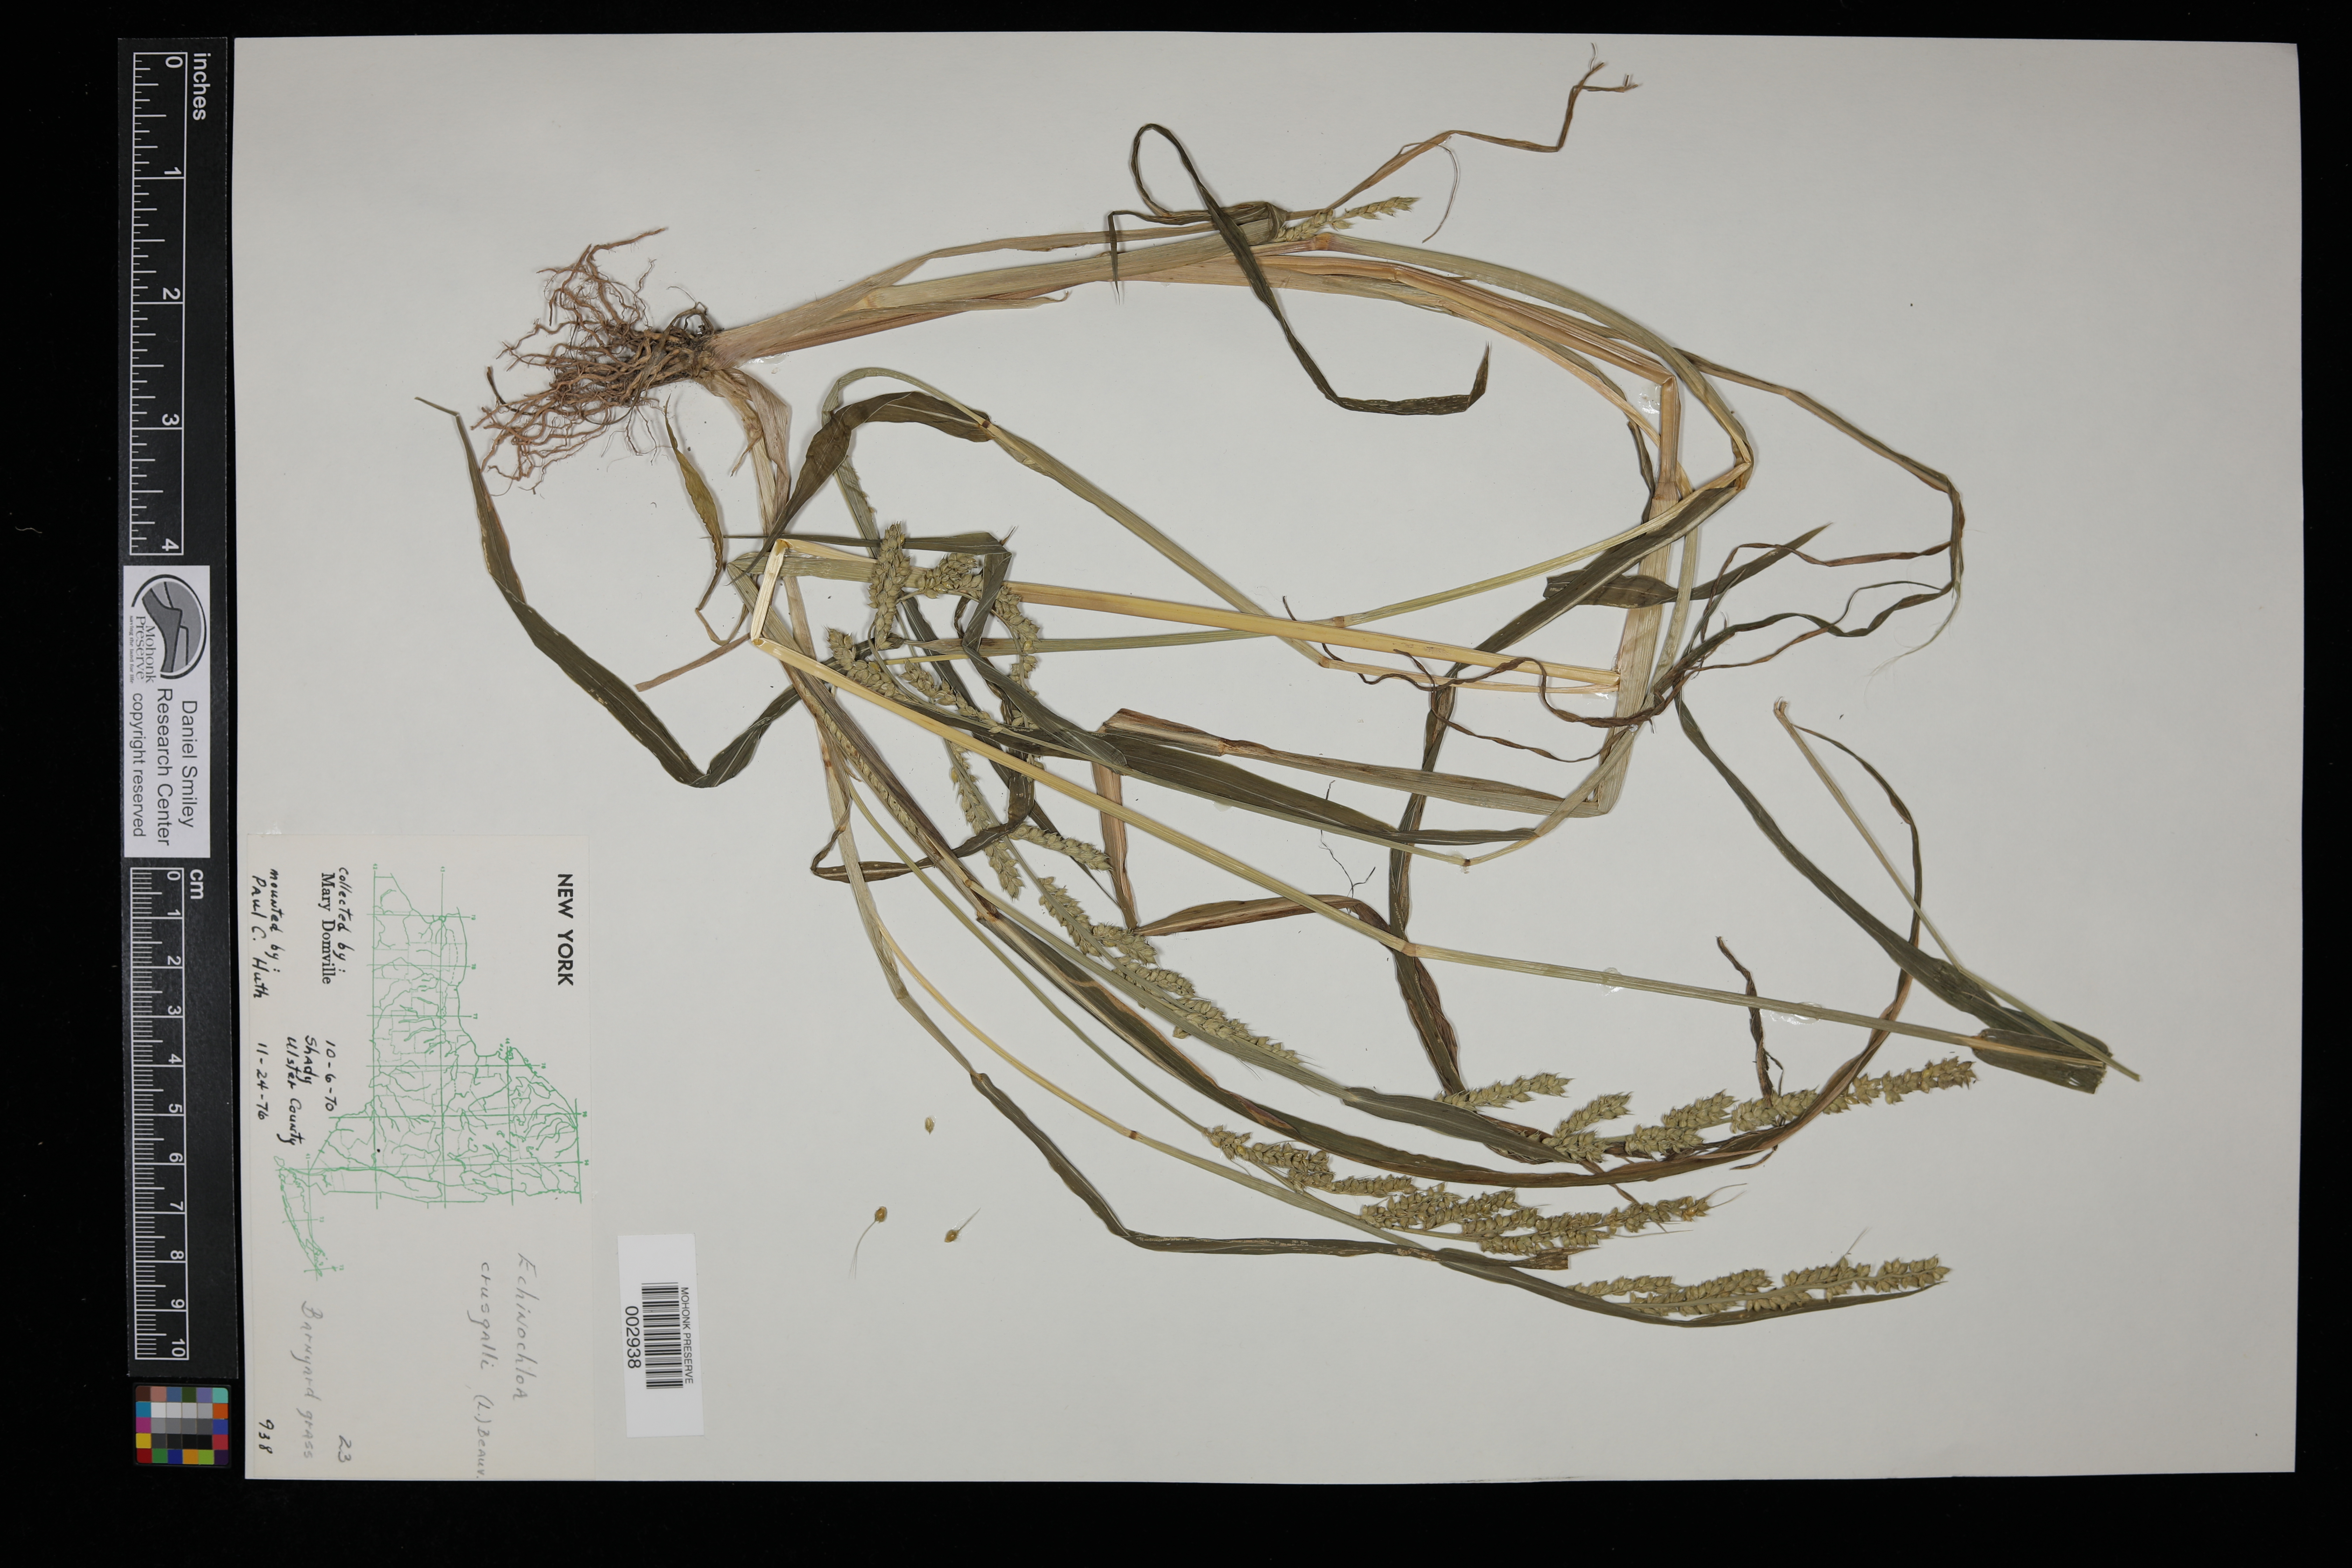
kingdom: Plantae
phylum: Tracheophyta
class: Liliopsida
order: Poales
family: Poaceae
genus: Echinochloa
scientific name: Echinochloa crus-galli
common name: Cockspur
